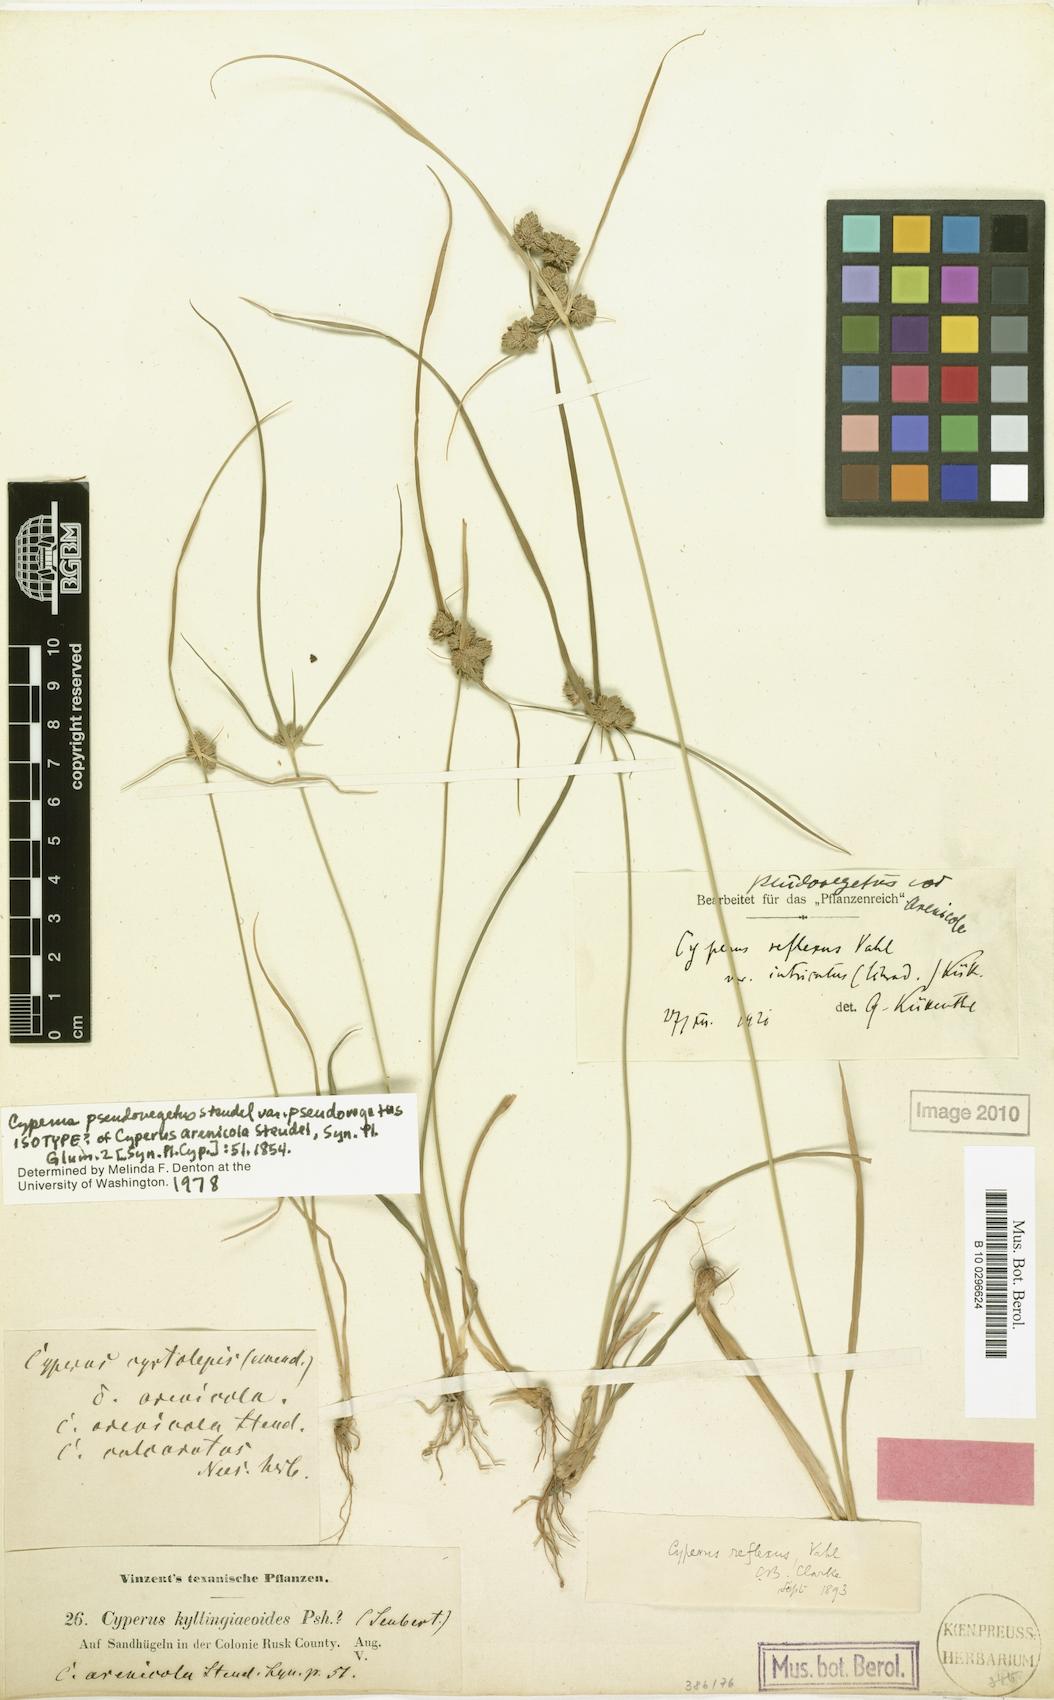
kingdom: Plantae
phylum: Tracheophyta
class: Liliopsida
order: Poales
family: Cyperaceae
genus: Cyperus
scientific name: Cyperus pseudovegetus
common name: Marsh flat sedge
